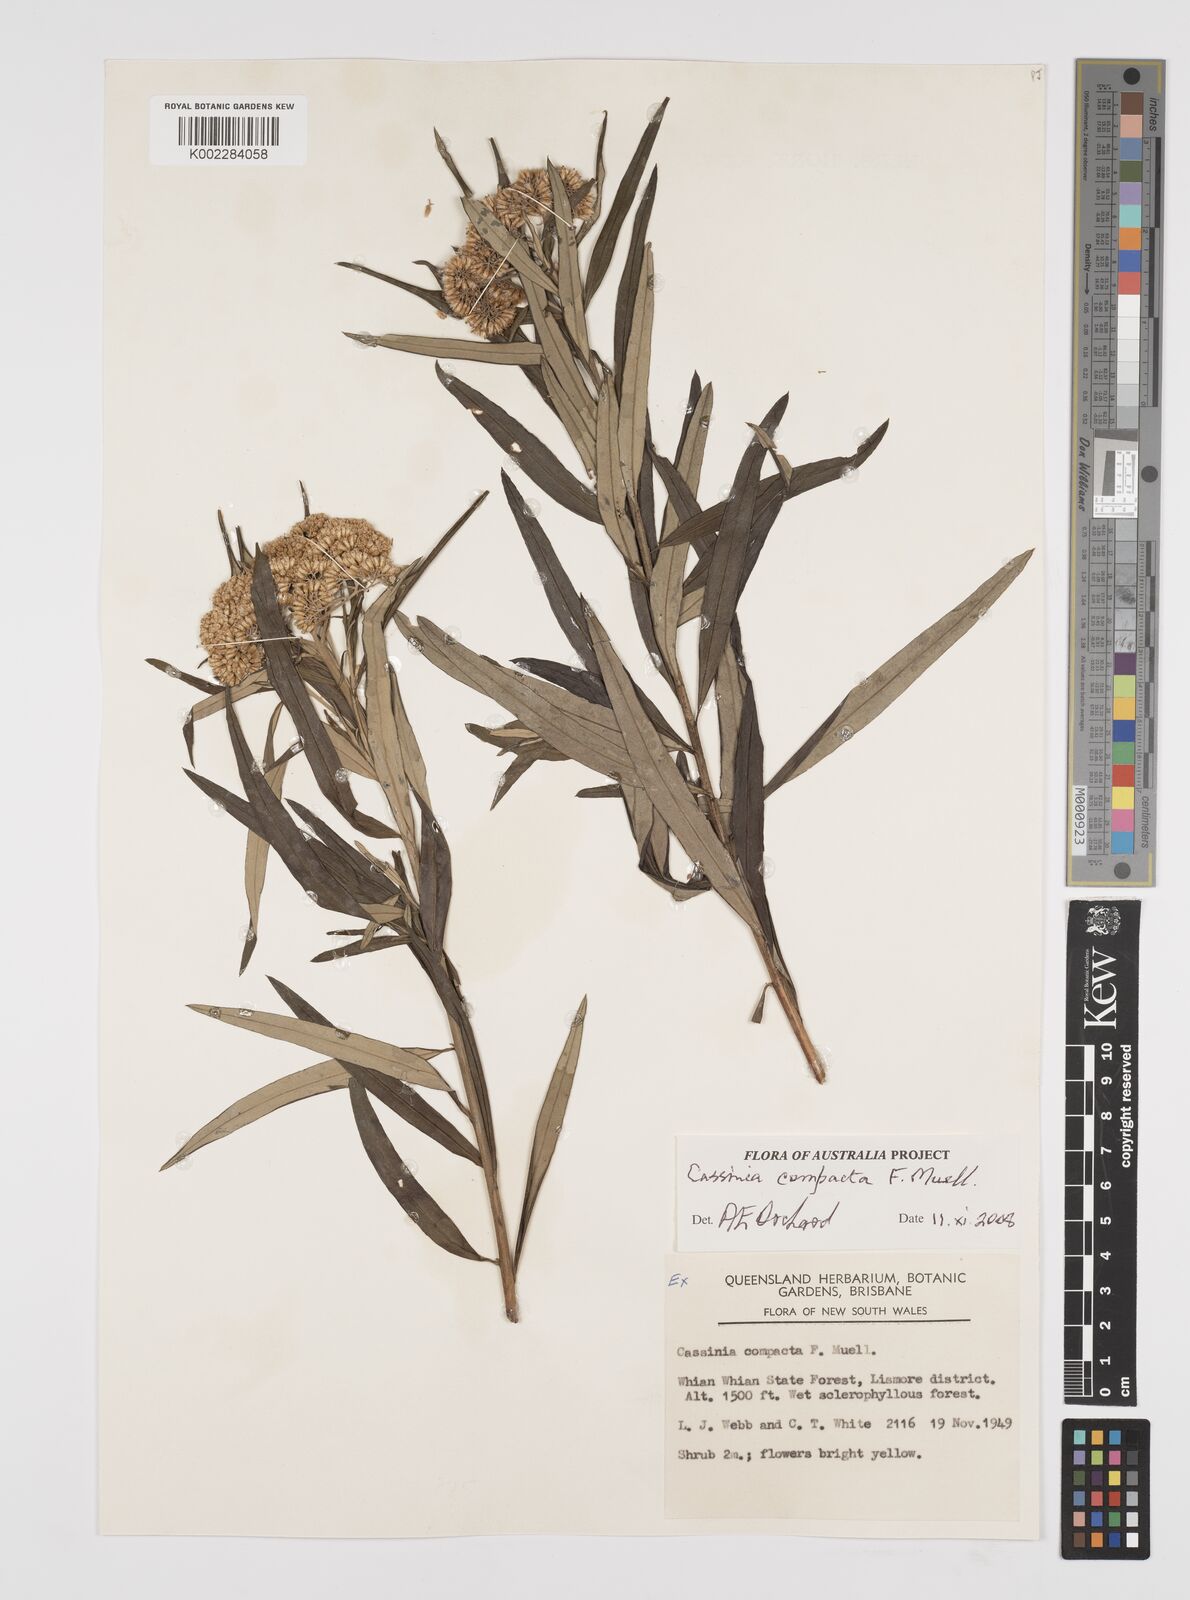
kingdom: Plantae
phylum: Tracheophyta
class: Magnoliopsida
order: Asterales
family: Asteraceae
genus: Cassinia
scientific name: Cassinia compacta
